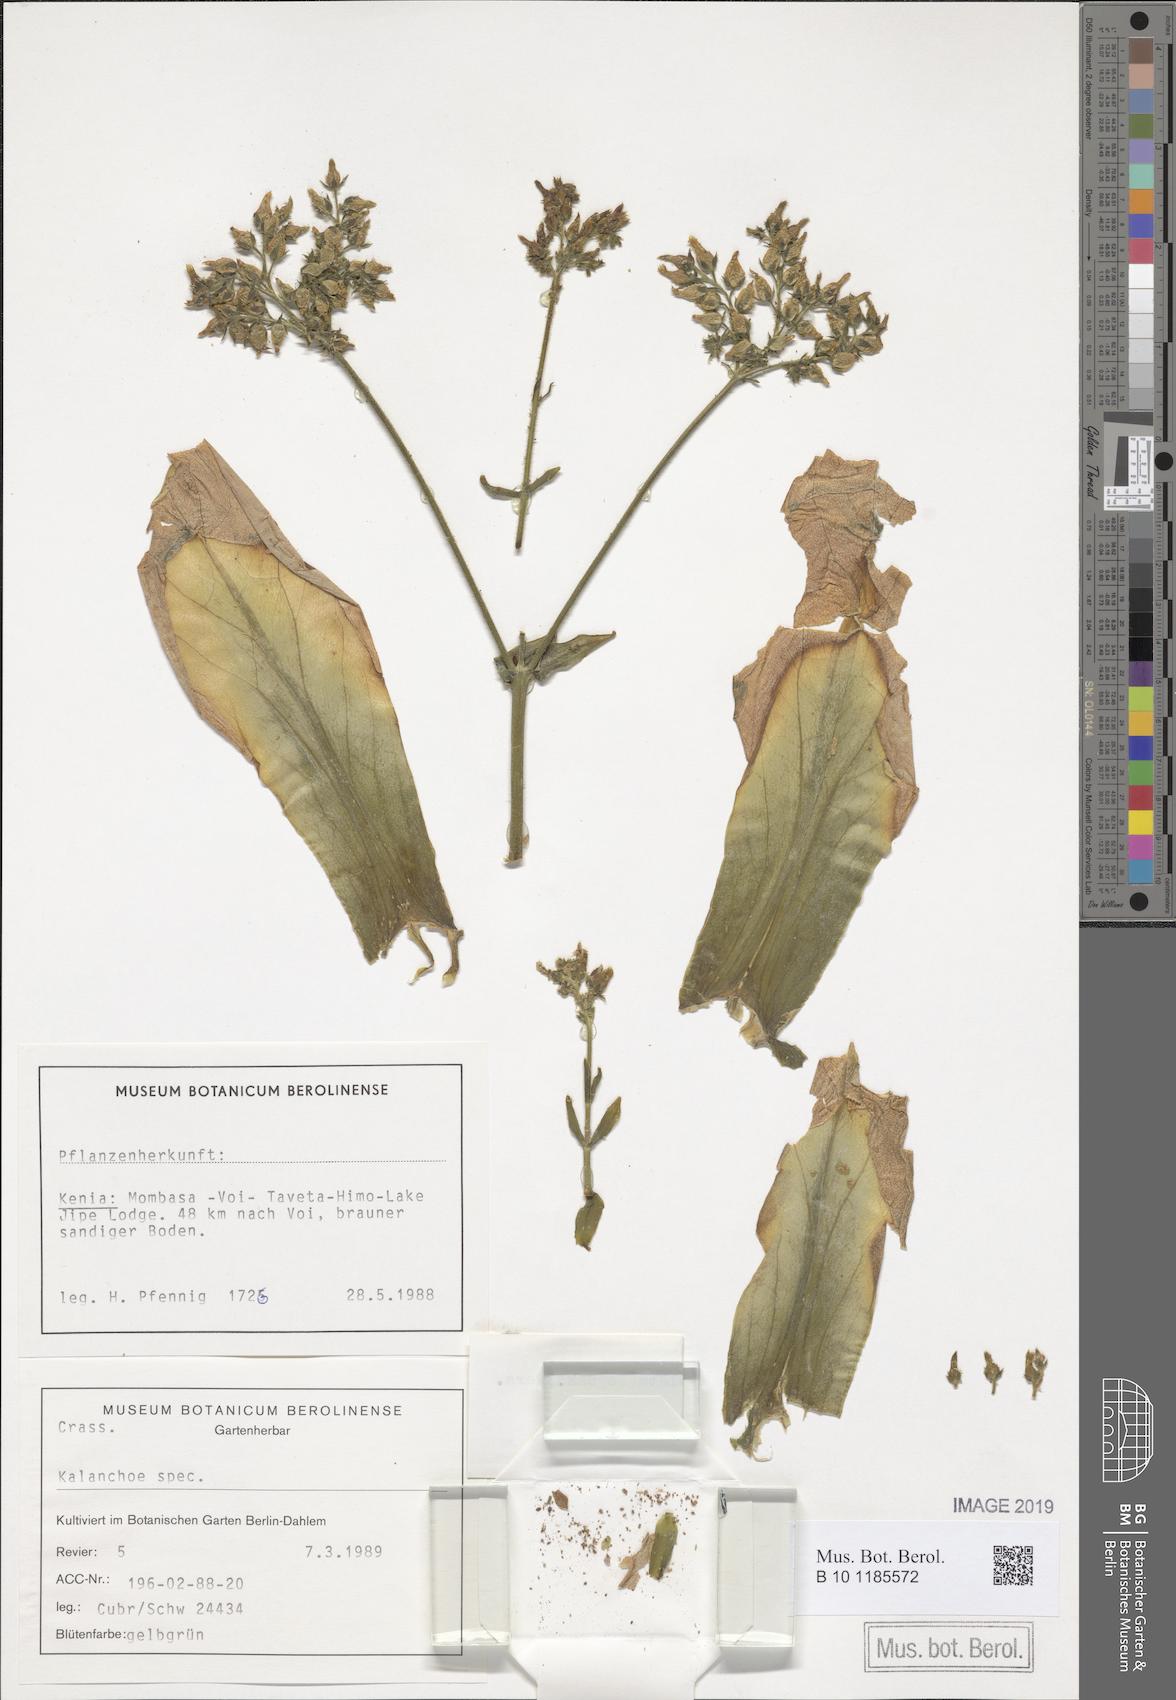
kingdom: Plantae
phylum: Tracheophyta
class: Magnoliopsida
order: Saxifragales
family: Crassulaceae
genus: Kalanchoe
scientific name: Kalanchoe lanceolata
